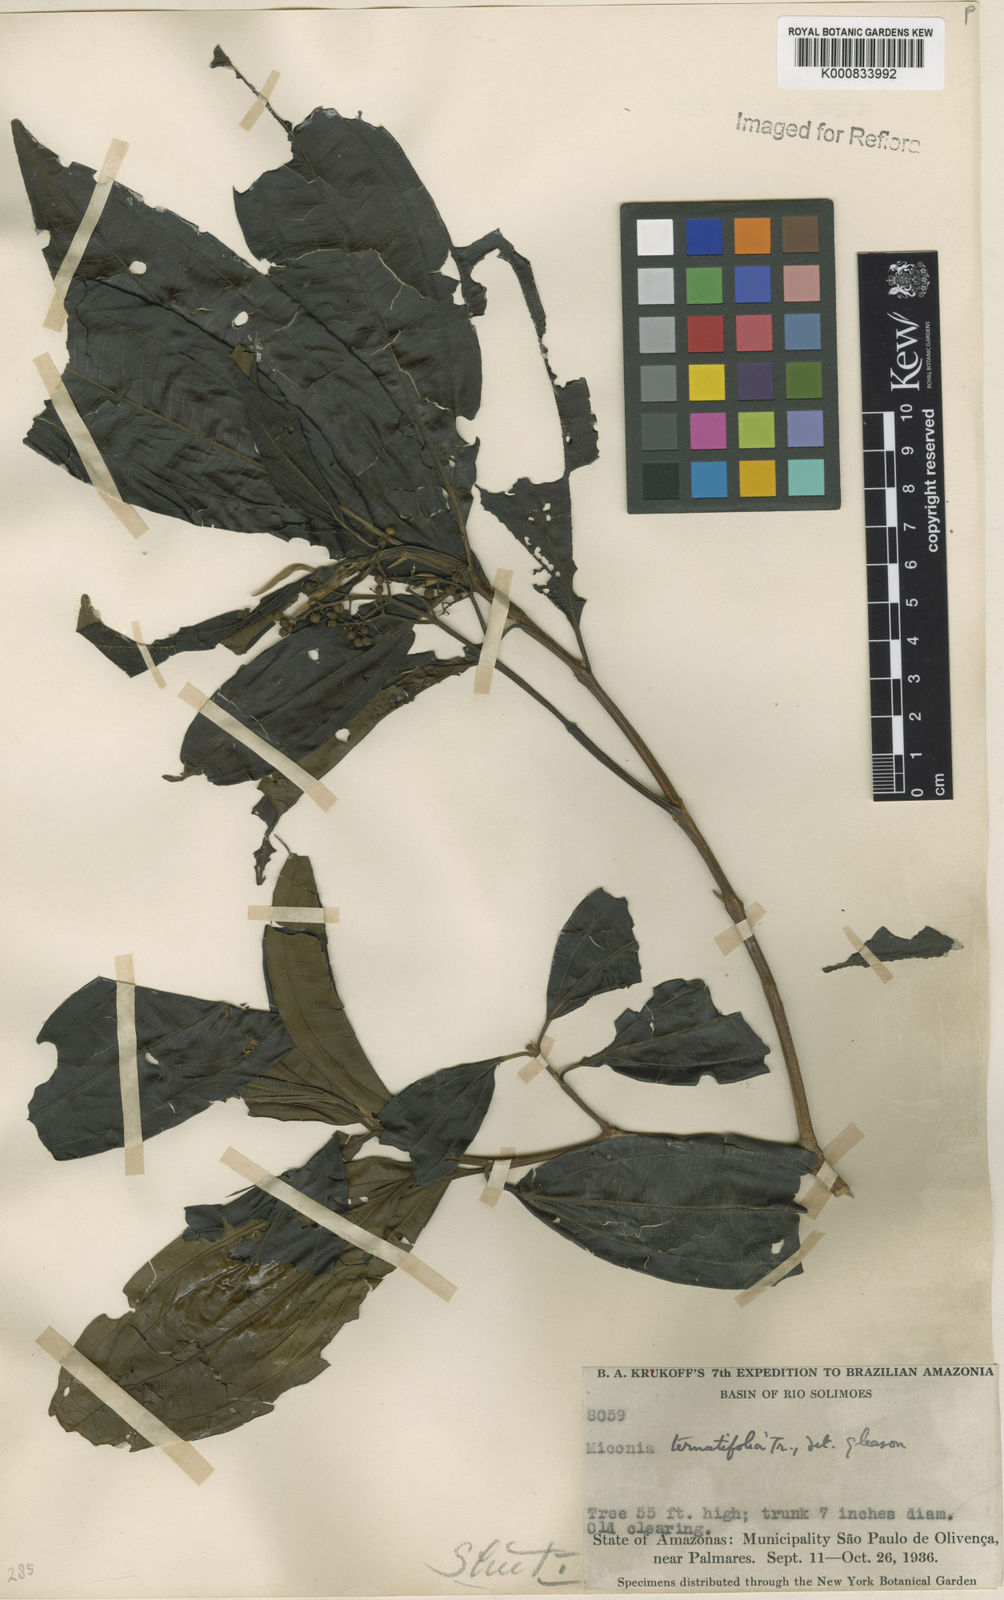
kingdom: Plantae
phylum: Tracheophyta
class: Magnoliopsida
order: Myrtales
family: Melastomataceae
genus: Miconia
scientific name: Miconia ternatifolia
